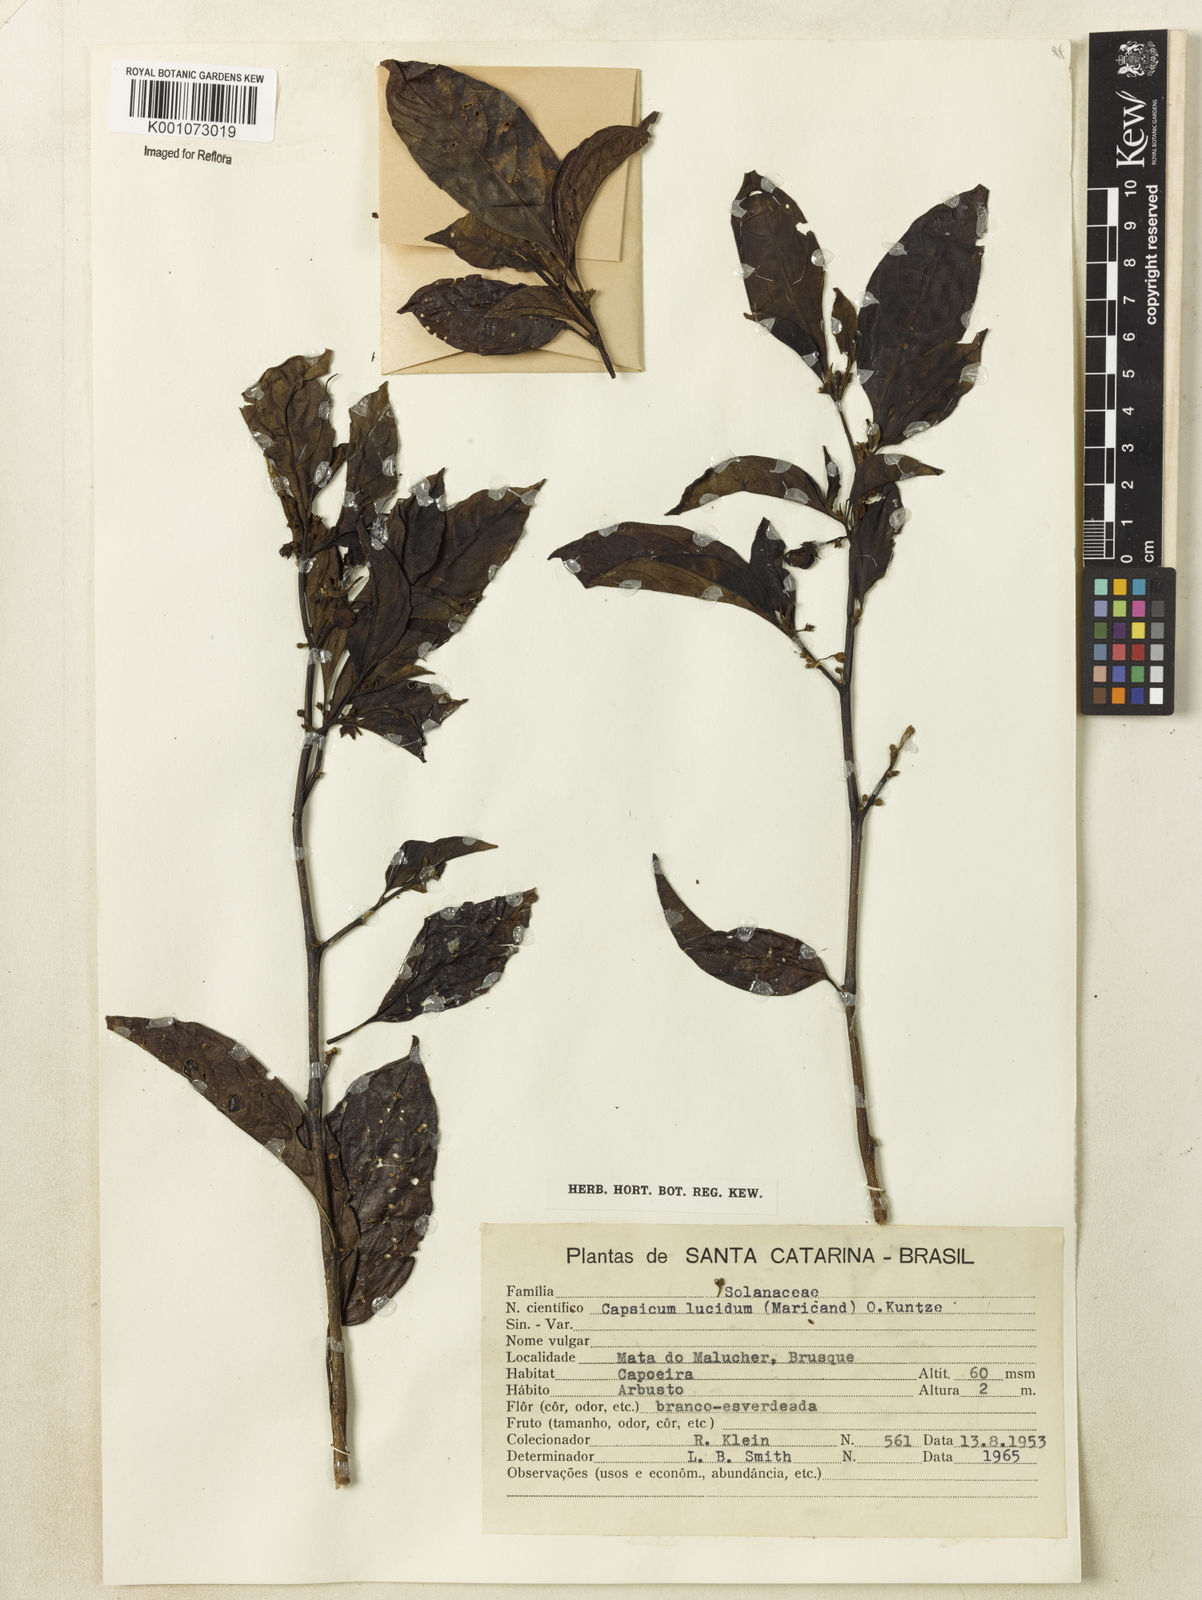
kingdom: Plantae
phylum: Tracheophyta
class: Magnoliopsida
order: Solanales
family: Solanaceae
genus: Athenaea
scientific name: Athenaea fasciculata
